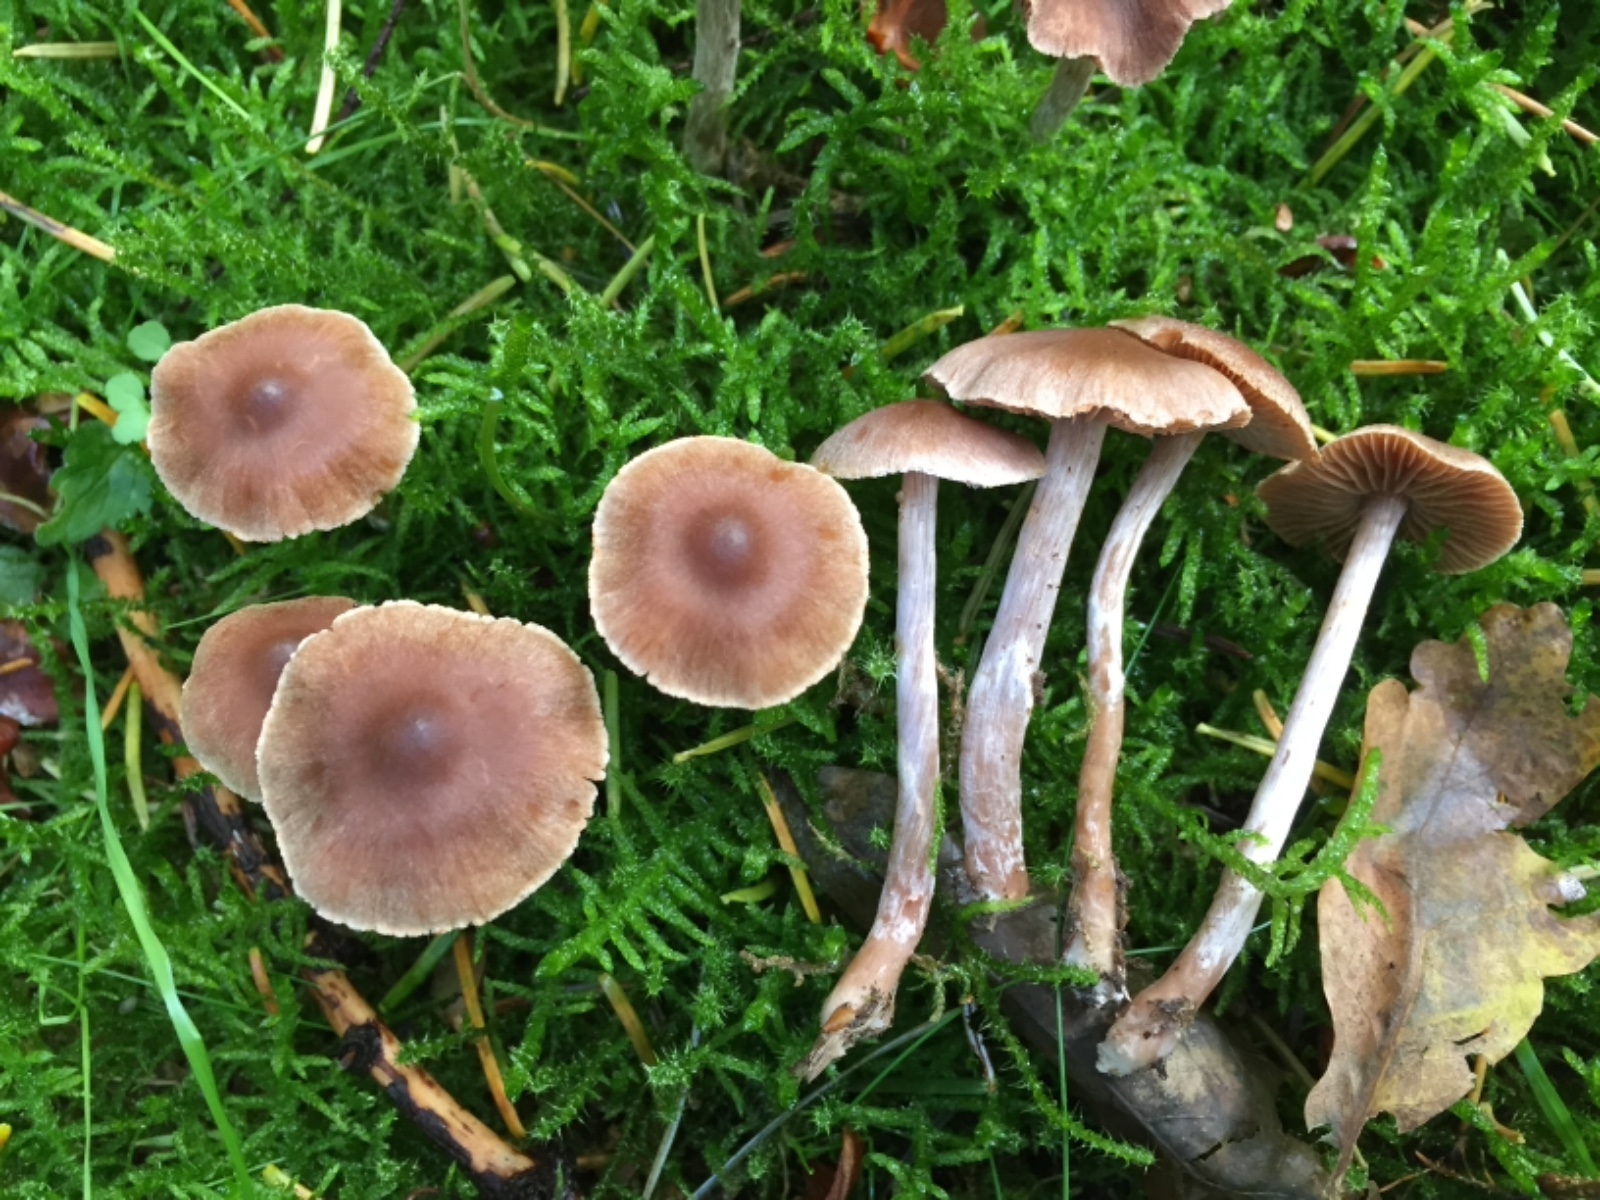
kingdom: Fungi
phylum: Basidiomycota
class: Agaricomycetes
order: Agaricales
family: Cortinariaceae
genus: Cortinarius
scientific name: Cortinarius comptulus
